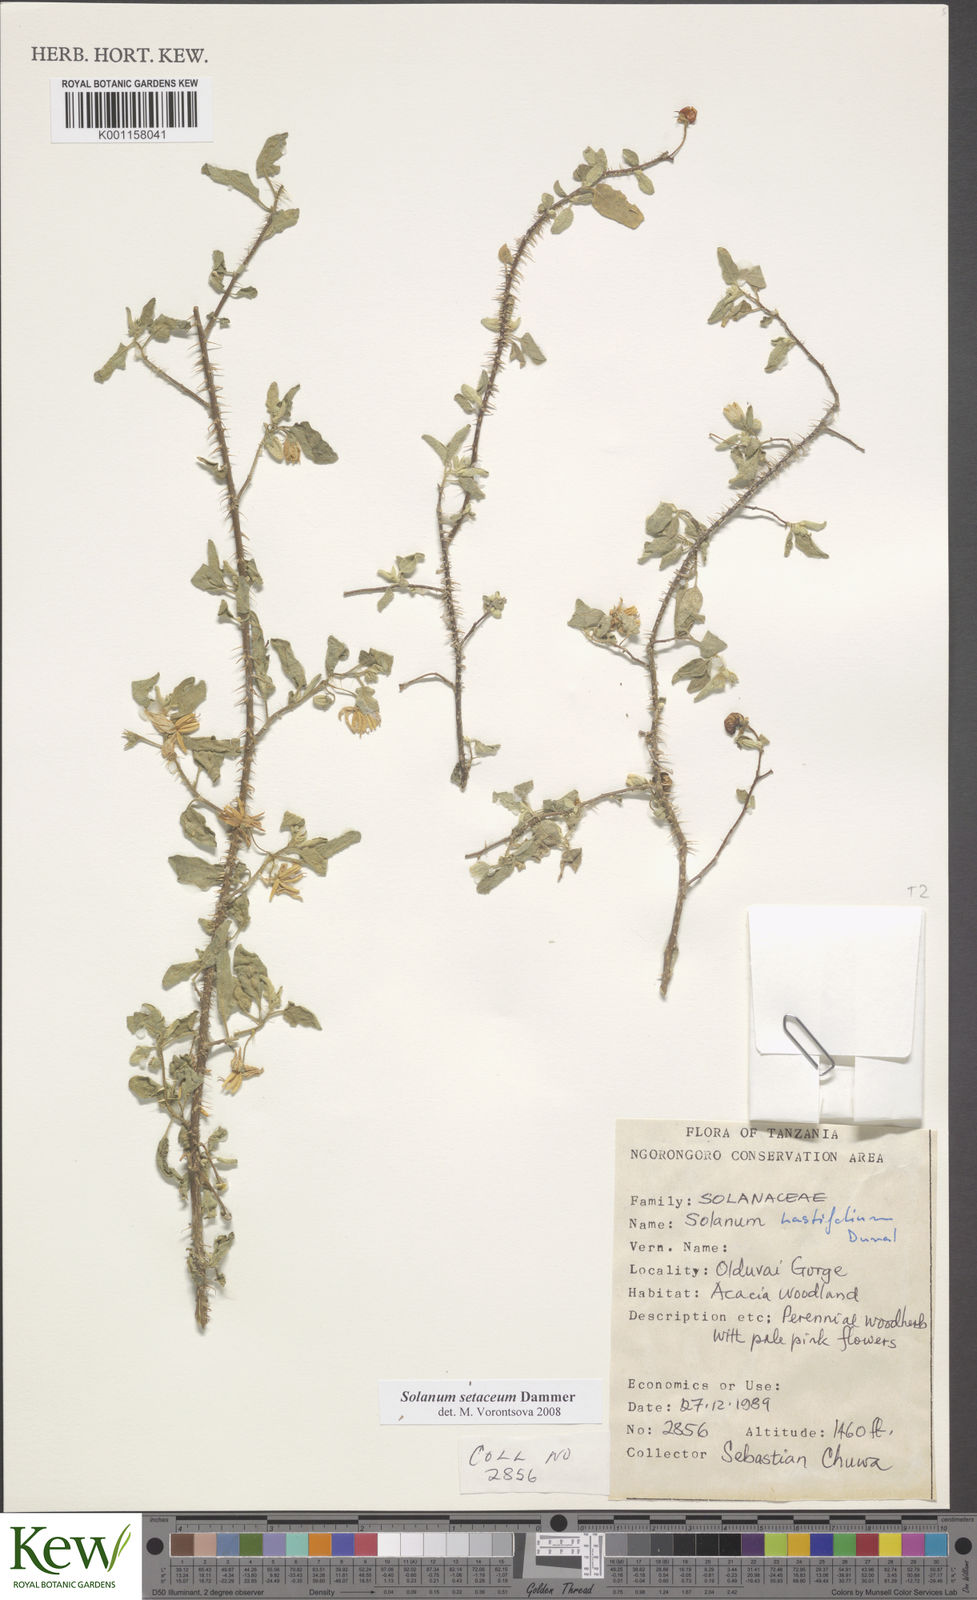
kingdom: Plantae
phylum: Tracheophyta
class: Magnoliopsida
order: Solanales
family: Solanaceae
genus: Solanum
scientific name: Solanum setaceum
